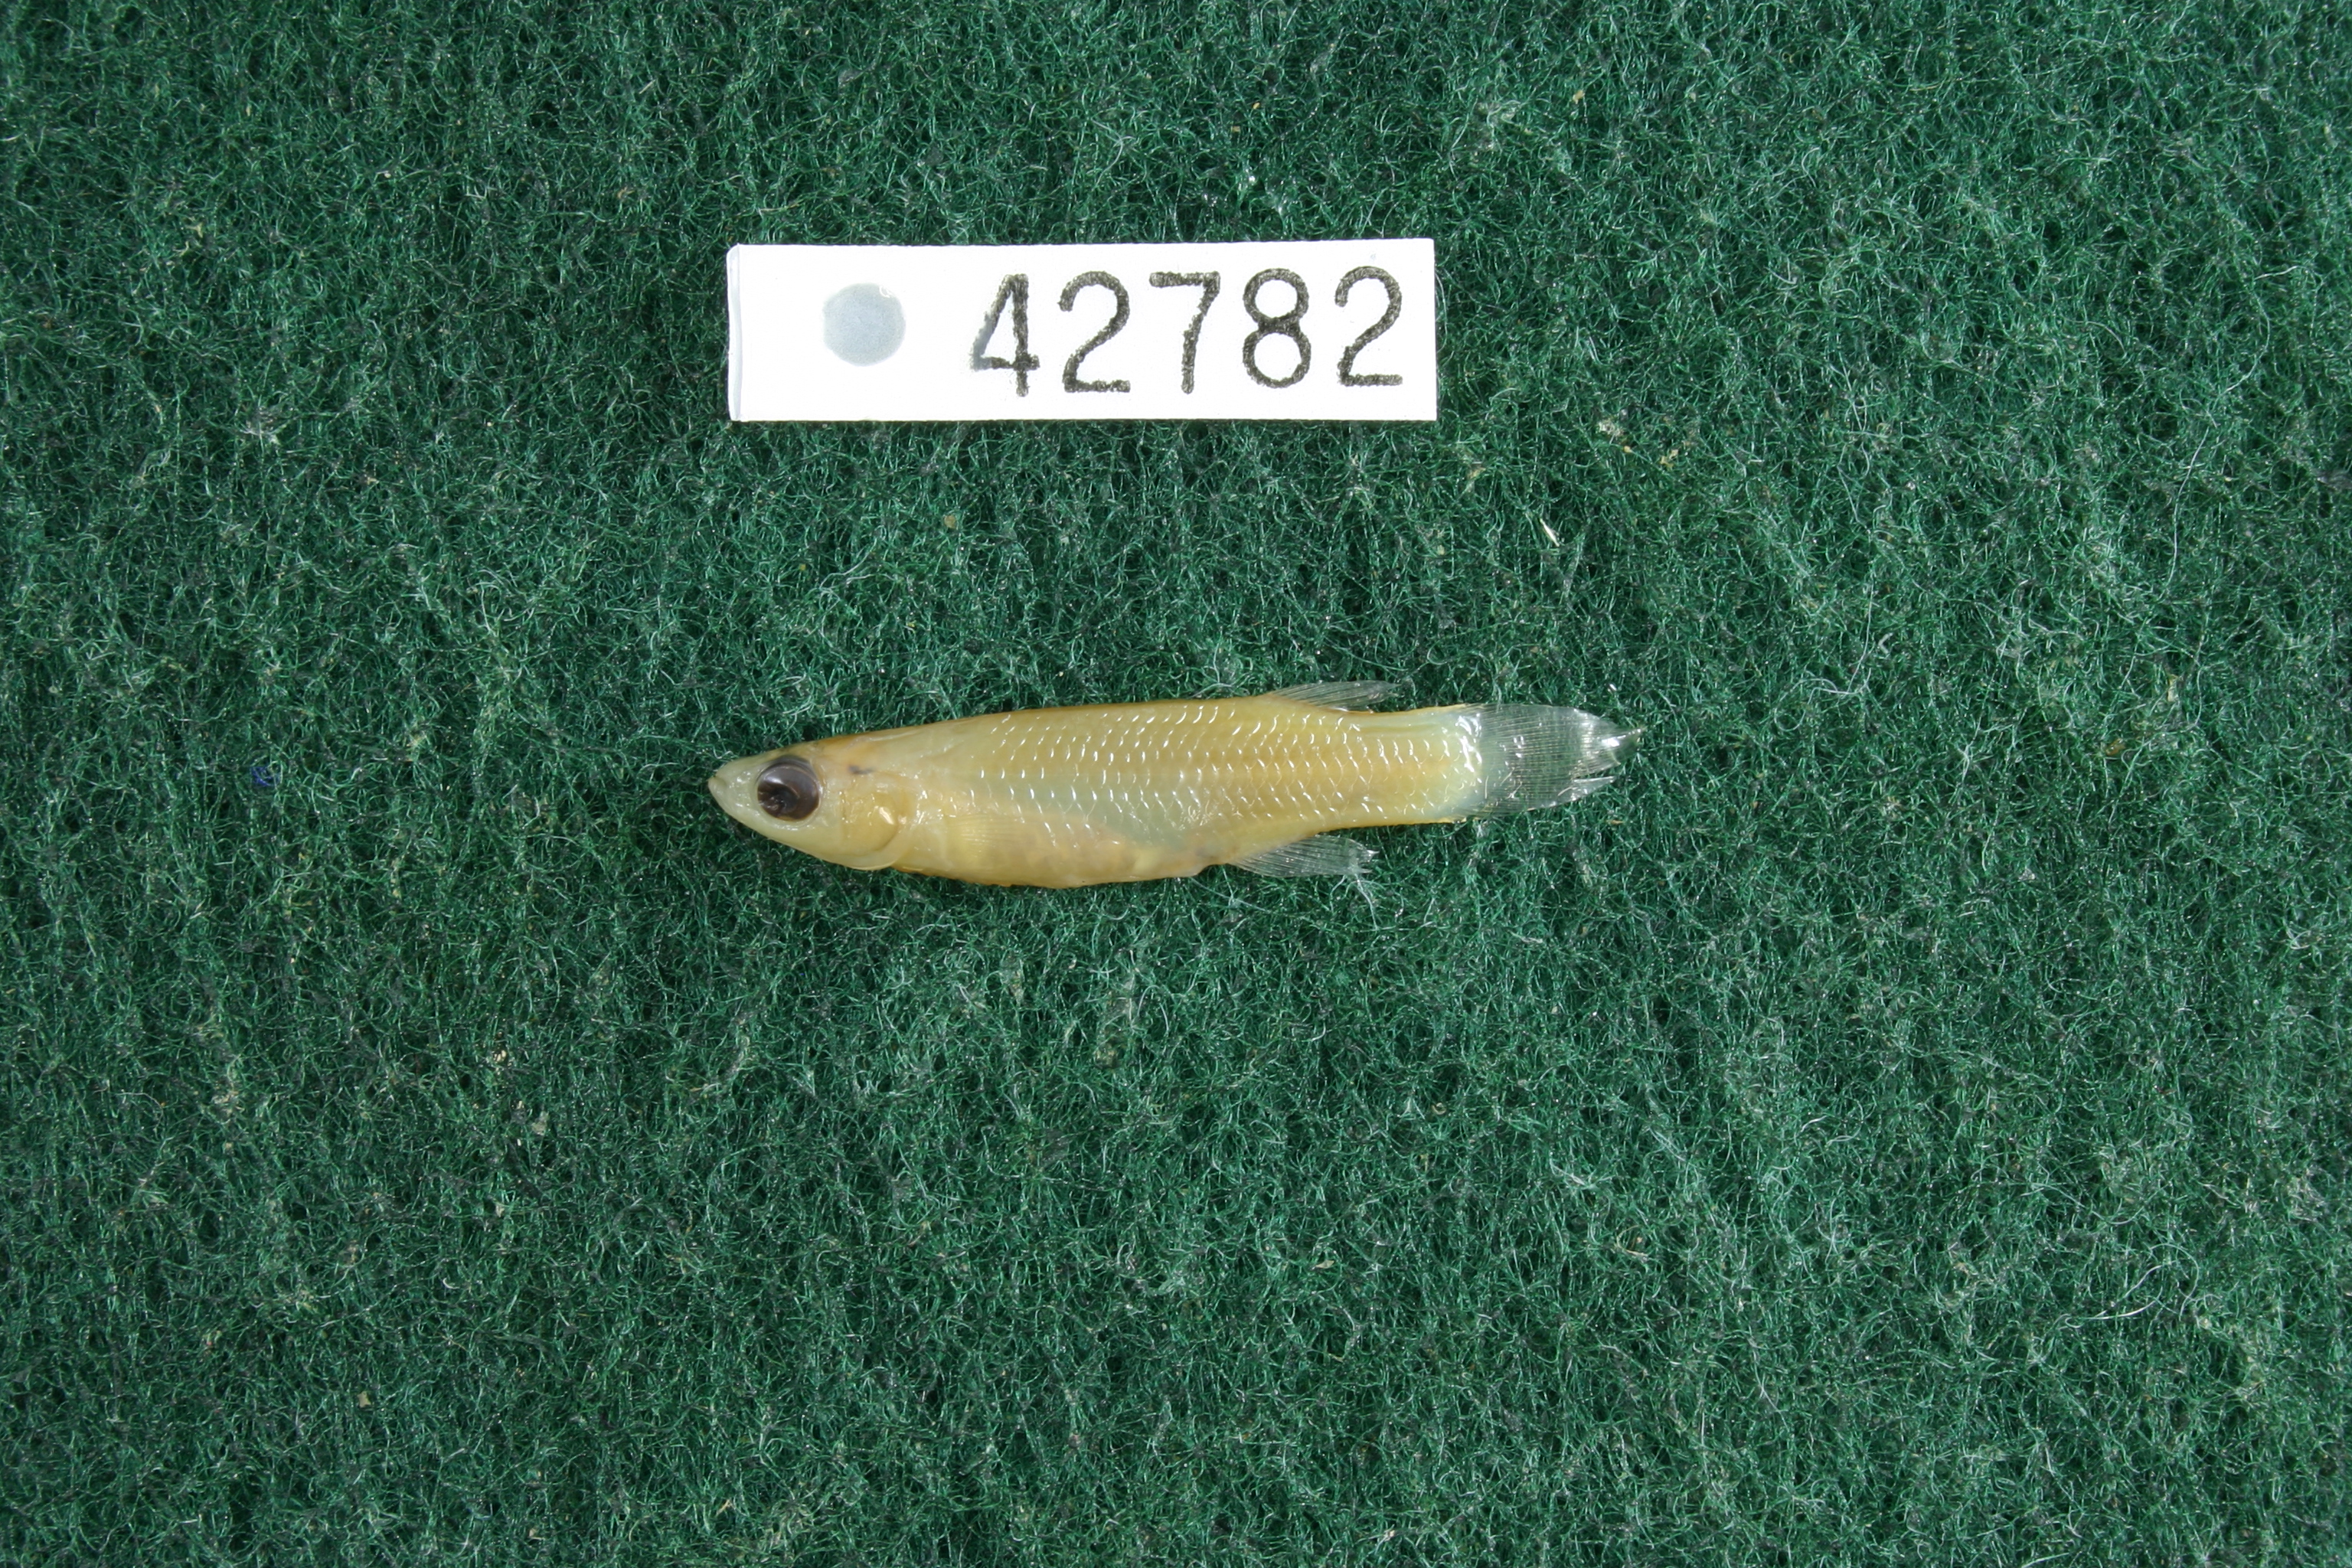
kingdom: Animalia
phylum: Chordata
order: Cyprinodontiformes
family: Fundulidae
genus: Fundulus
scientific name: Fundulus chrysotus
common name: Golden topminnow
